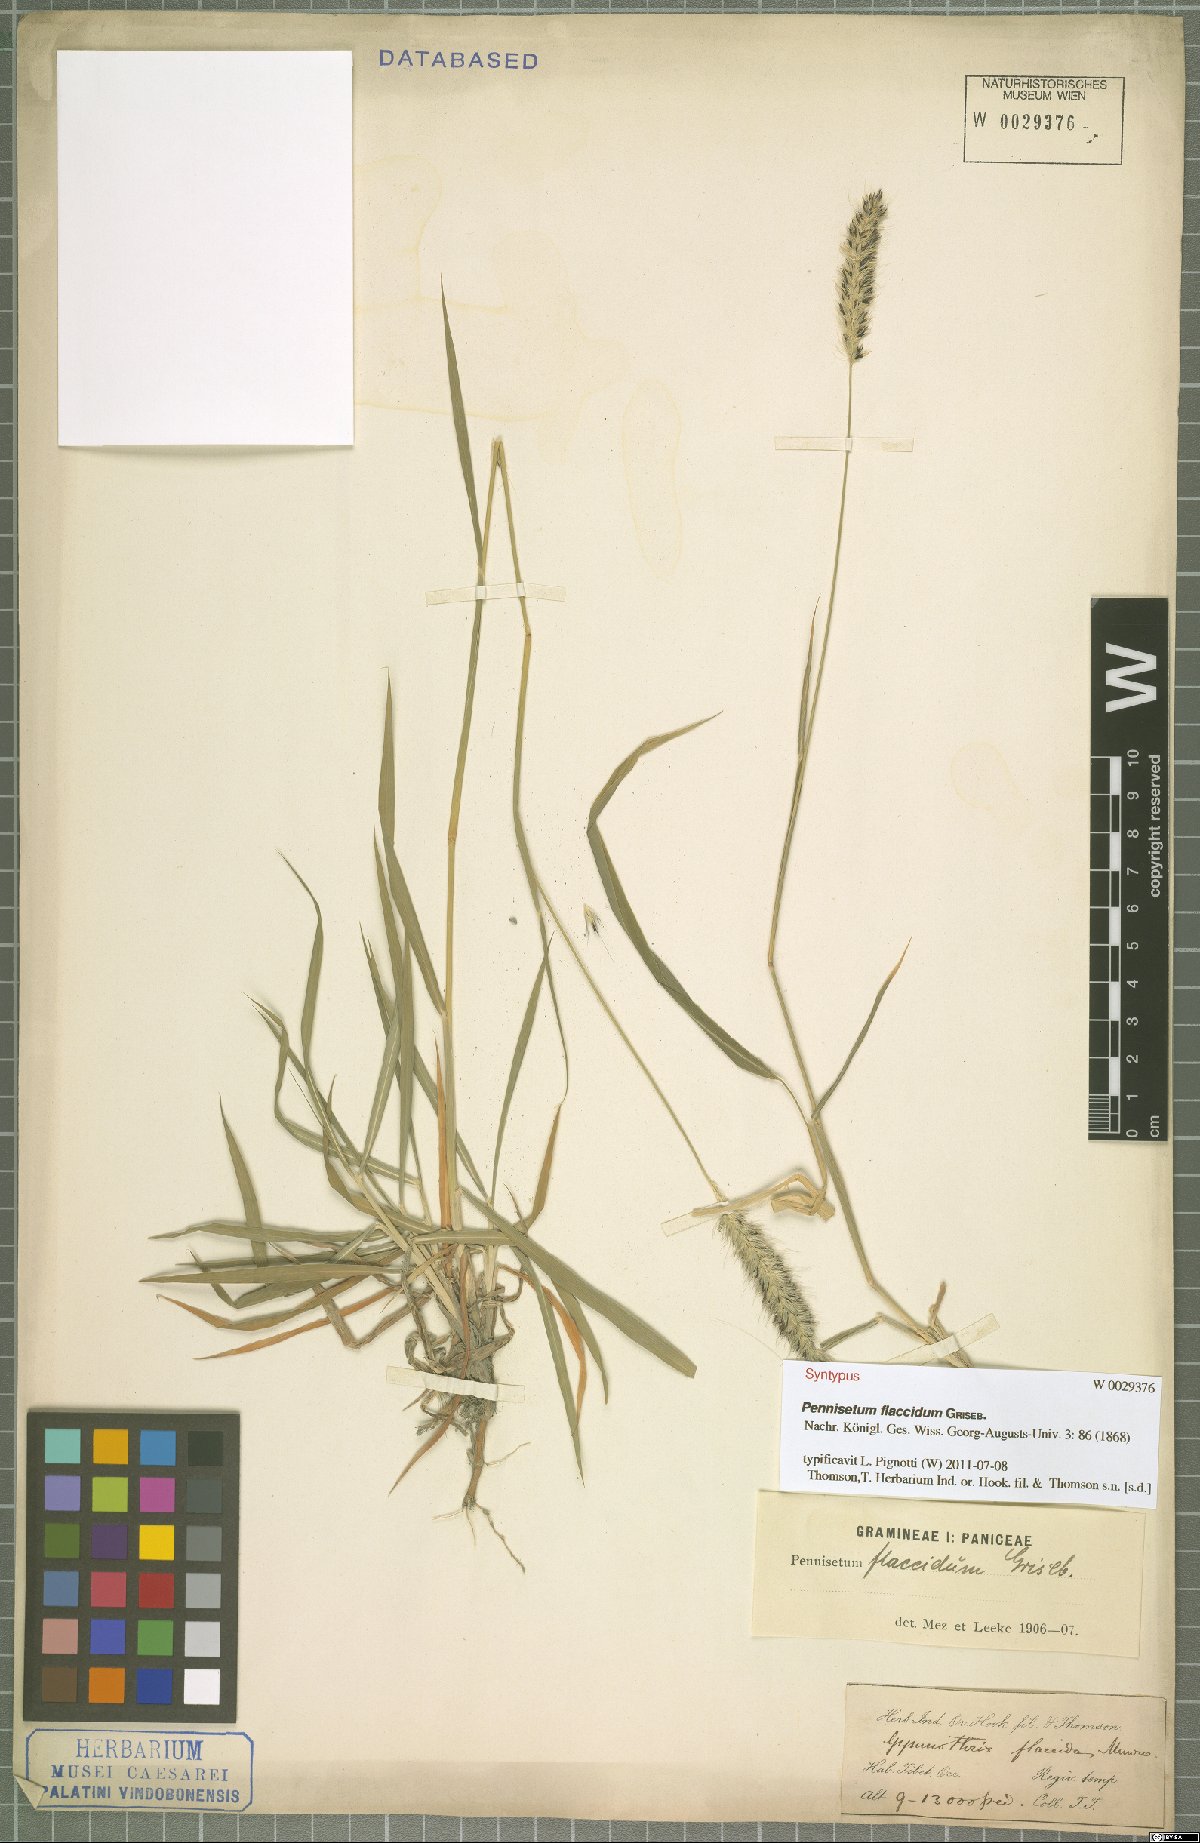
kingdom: Plantae
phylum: Tracheophyta
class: Liliopsida
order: Poales
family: Poaceae
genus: Cenchrus
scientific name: Cenchrus flaccidus
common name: Flaccid grass
